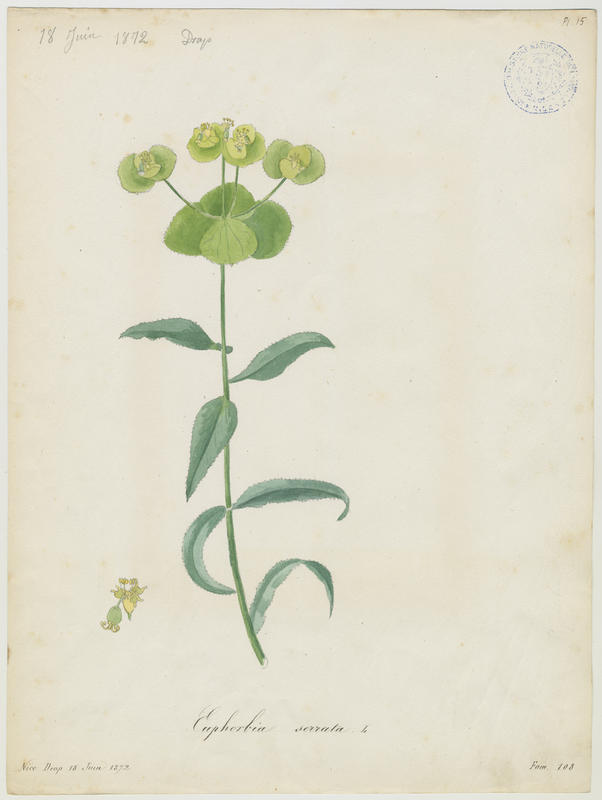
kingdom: Plantae
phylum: Tracheophyta
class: Magnoliopsida
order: Malpighiales
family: Euphorbiaceae
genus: Euphorbia
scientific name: Euphorbia serrata
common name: Serrate spurge
